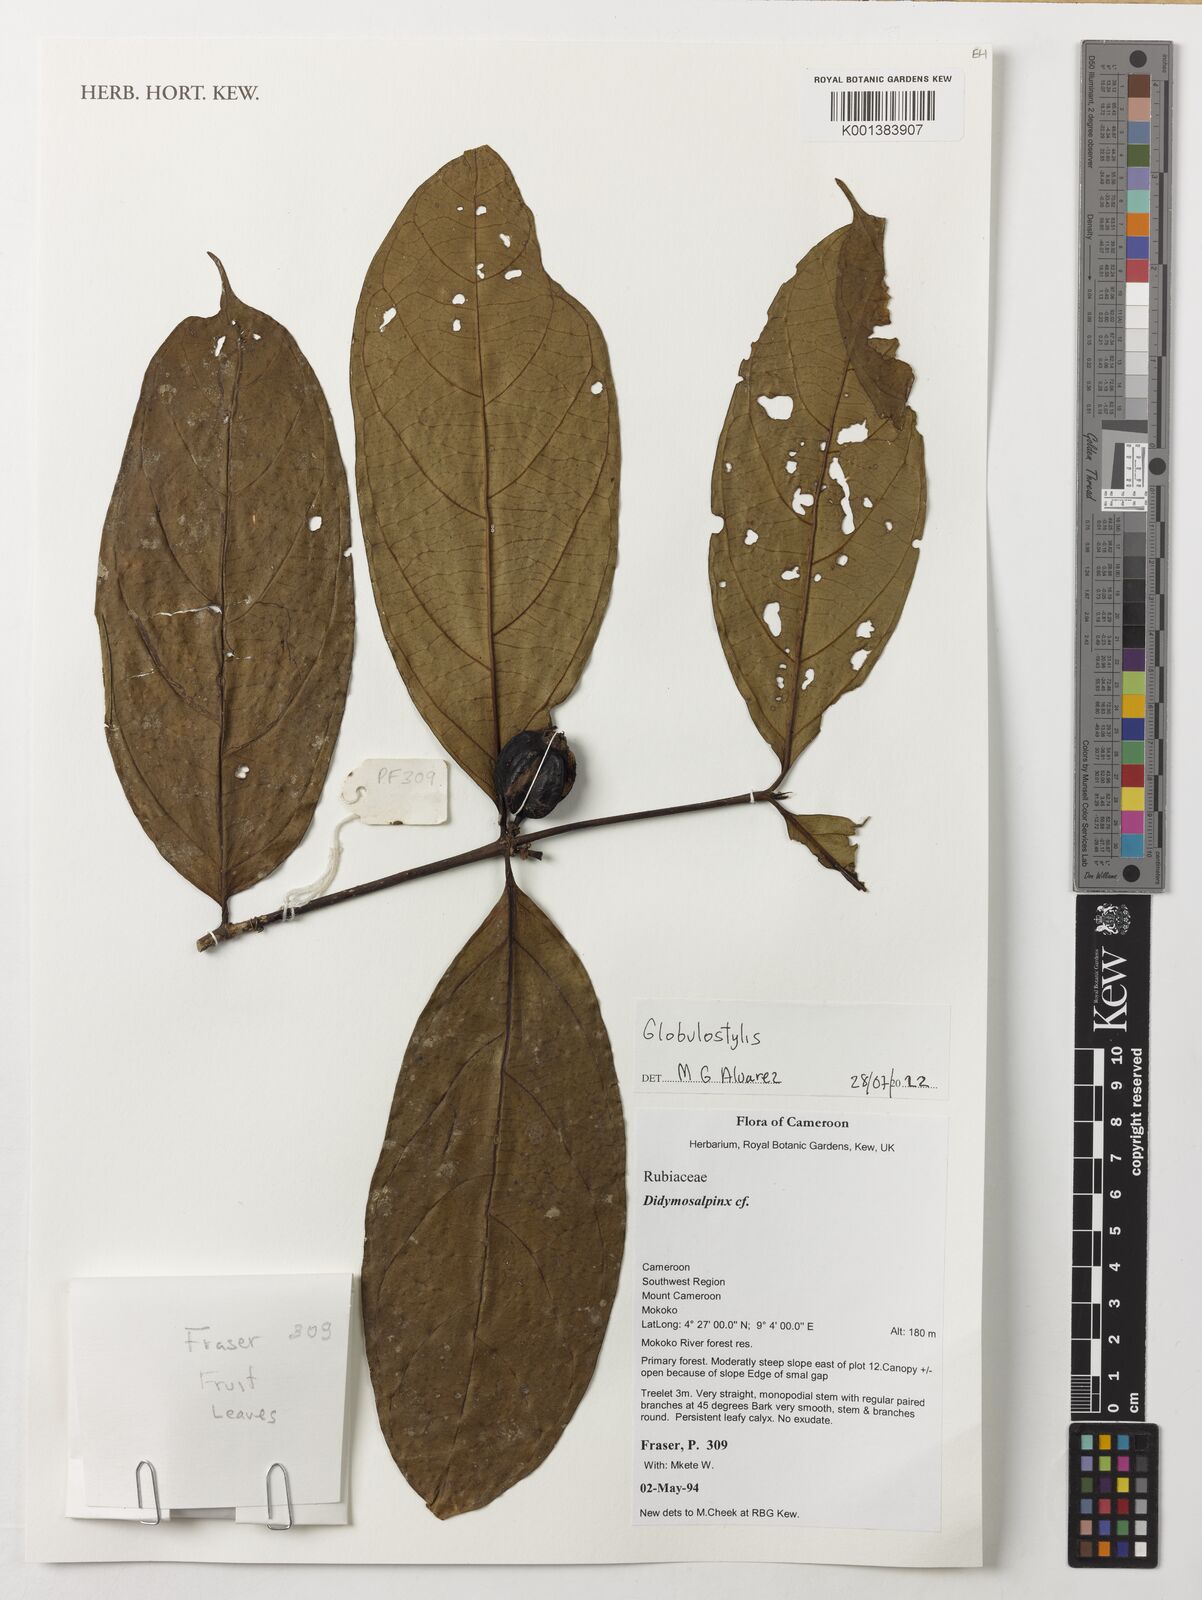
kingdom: Plantae
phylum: Tracheophyta
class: Magnoliopsida
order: Gentianales
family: Rubiaceae
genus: Globulostylis
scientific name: Globulostylis
